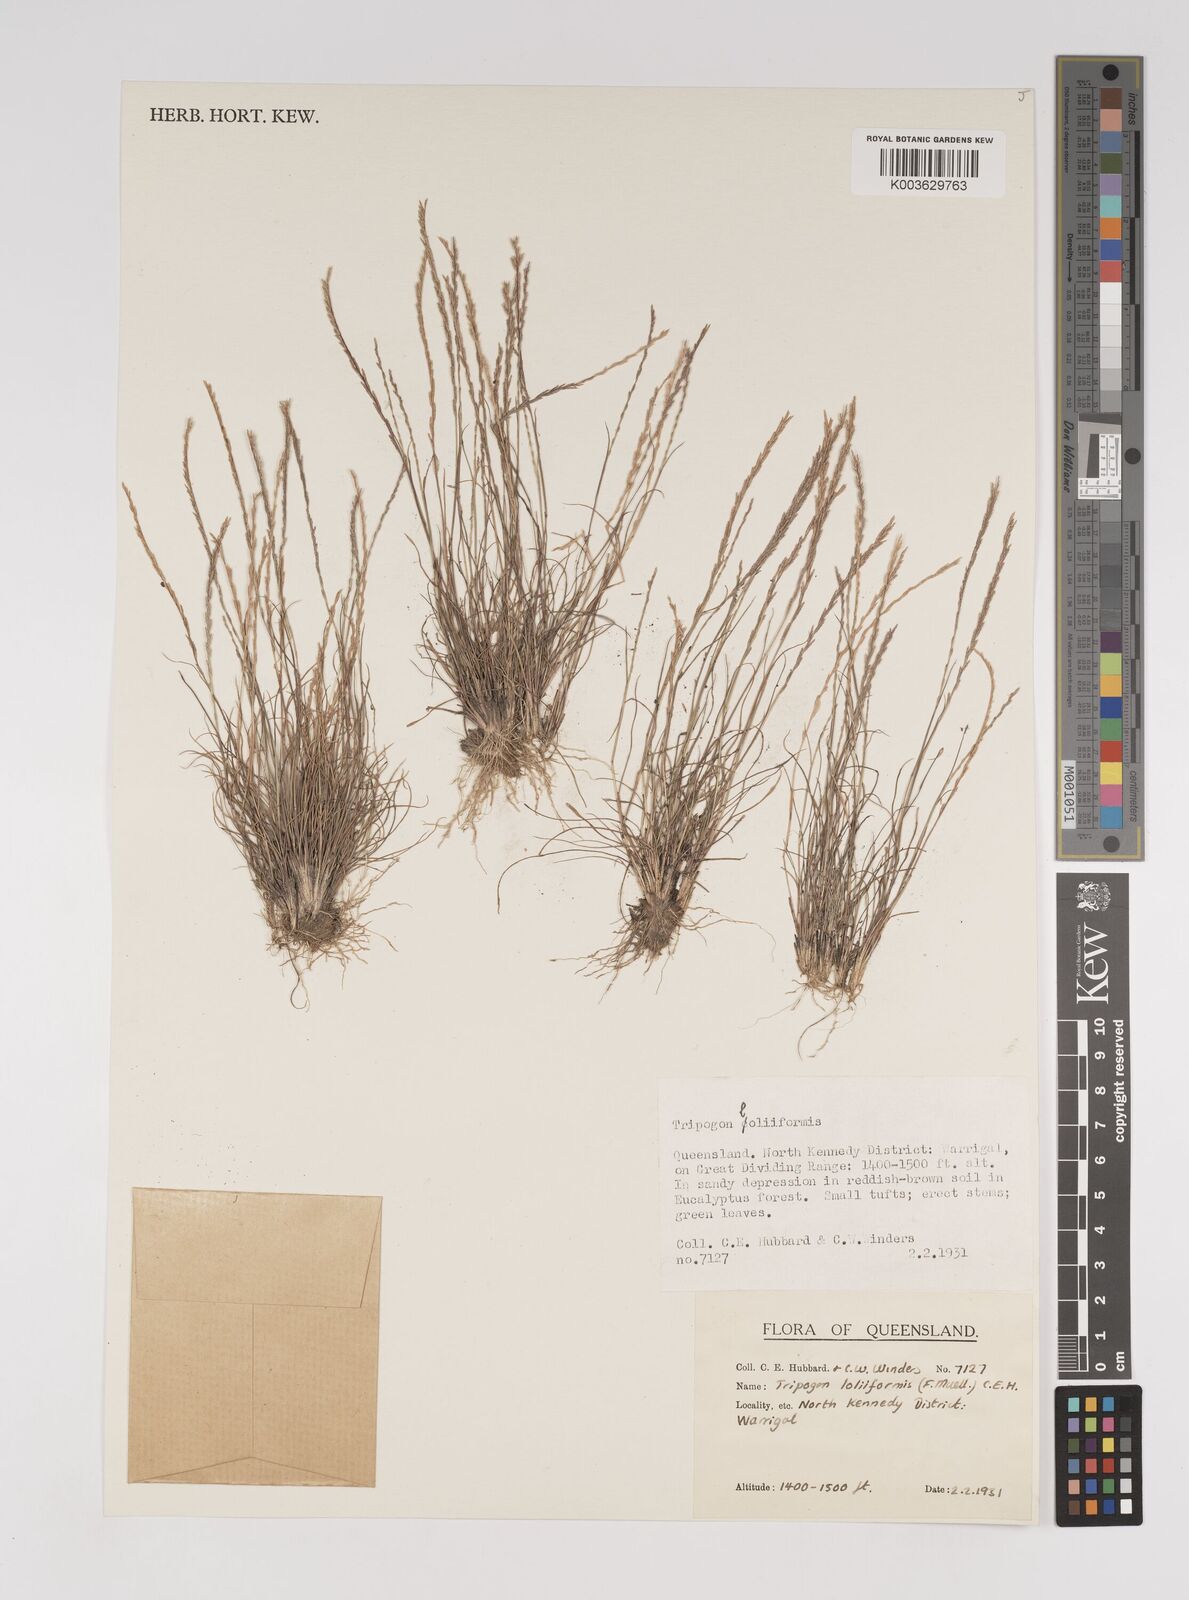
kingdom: Plantae
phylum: Tracheophyta
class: Liliopsida
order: Poales
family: Poaceae
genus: Tripogonella
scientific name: Tripogonella loliiformis
